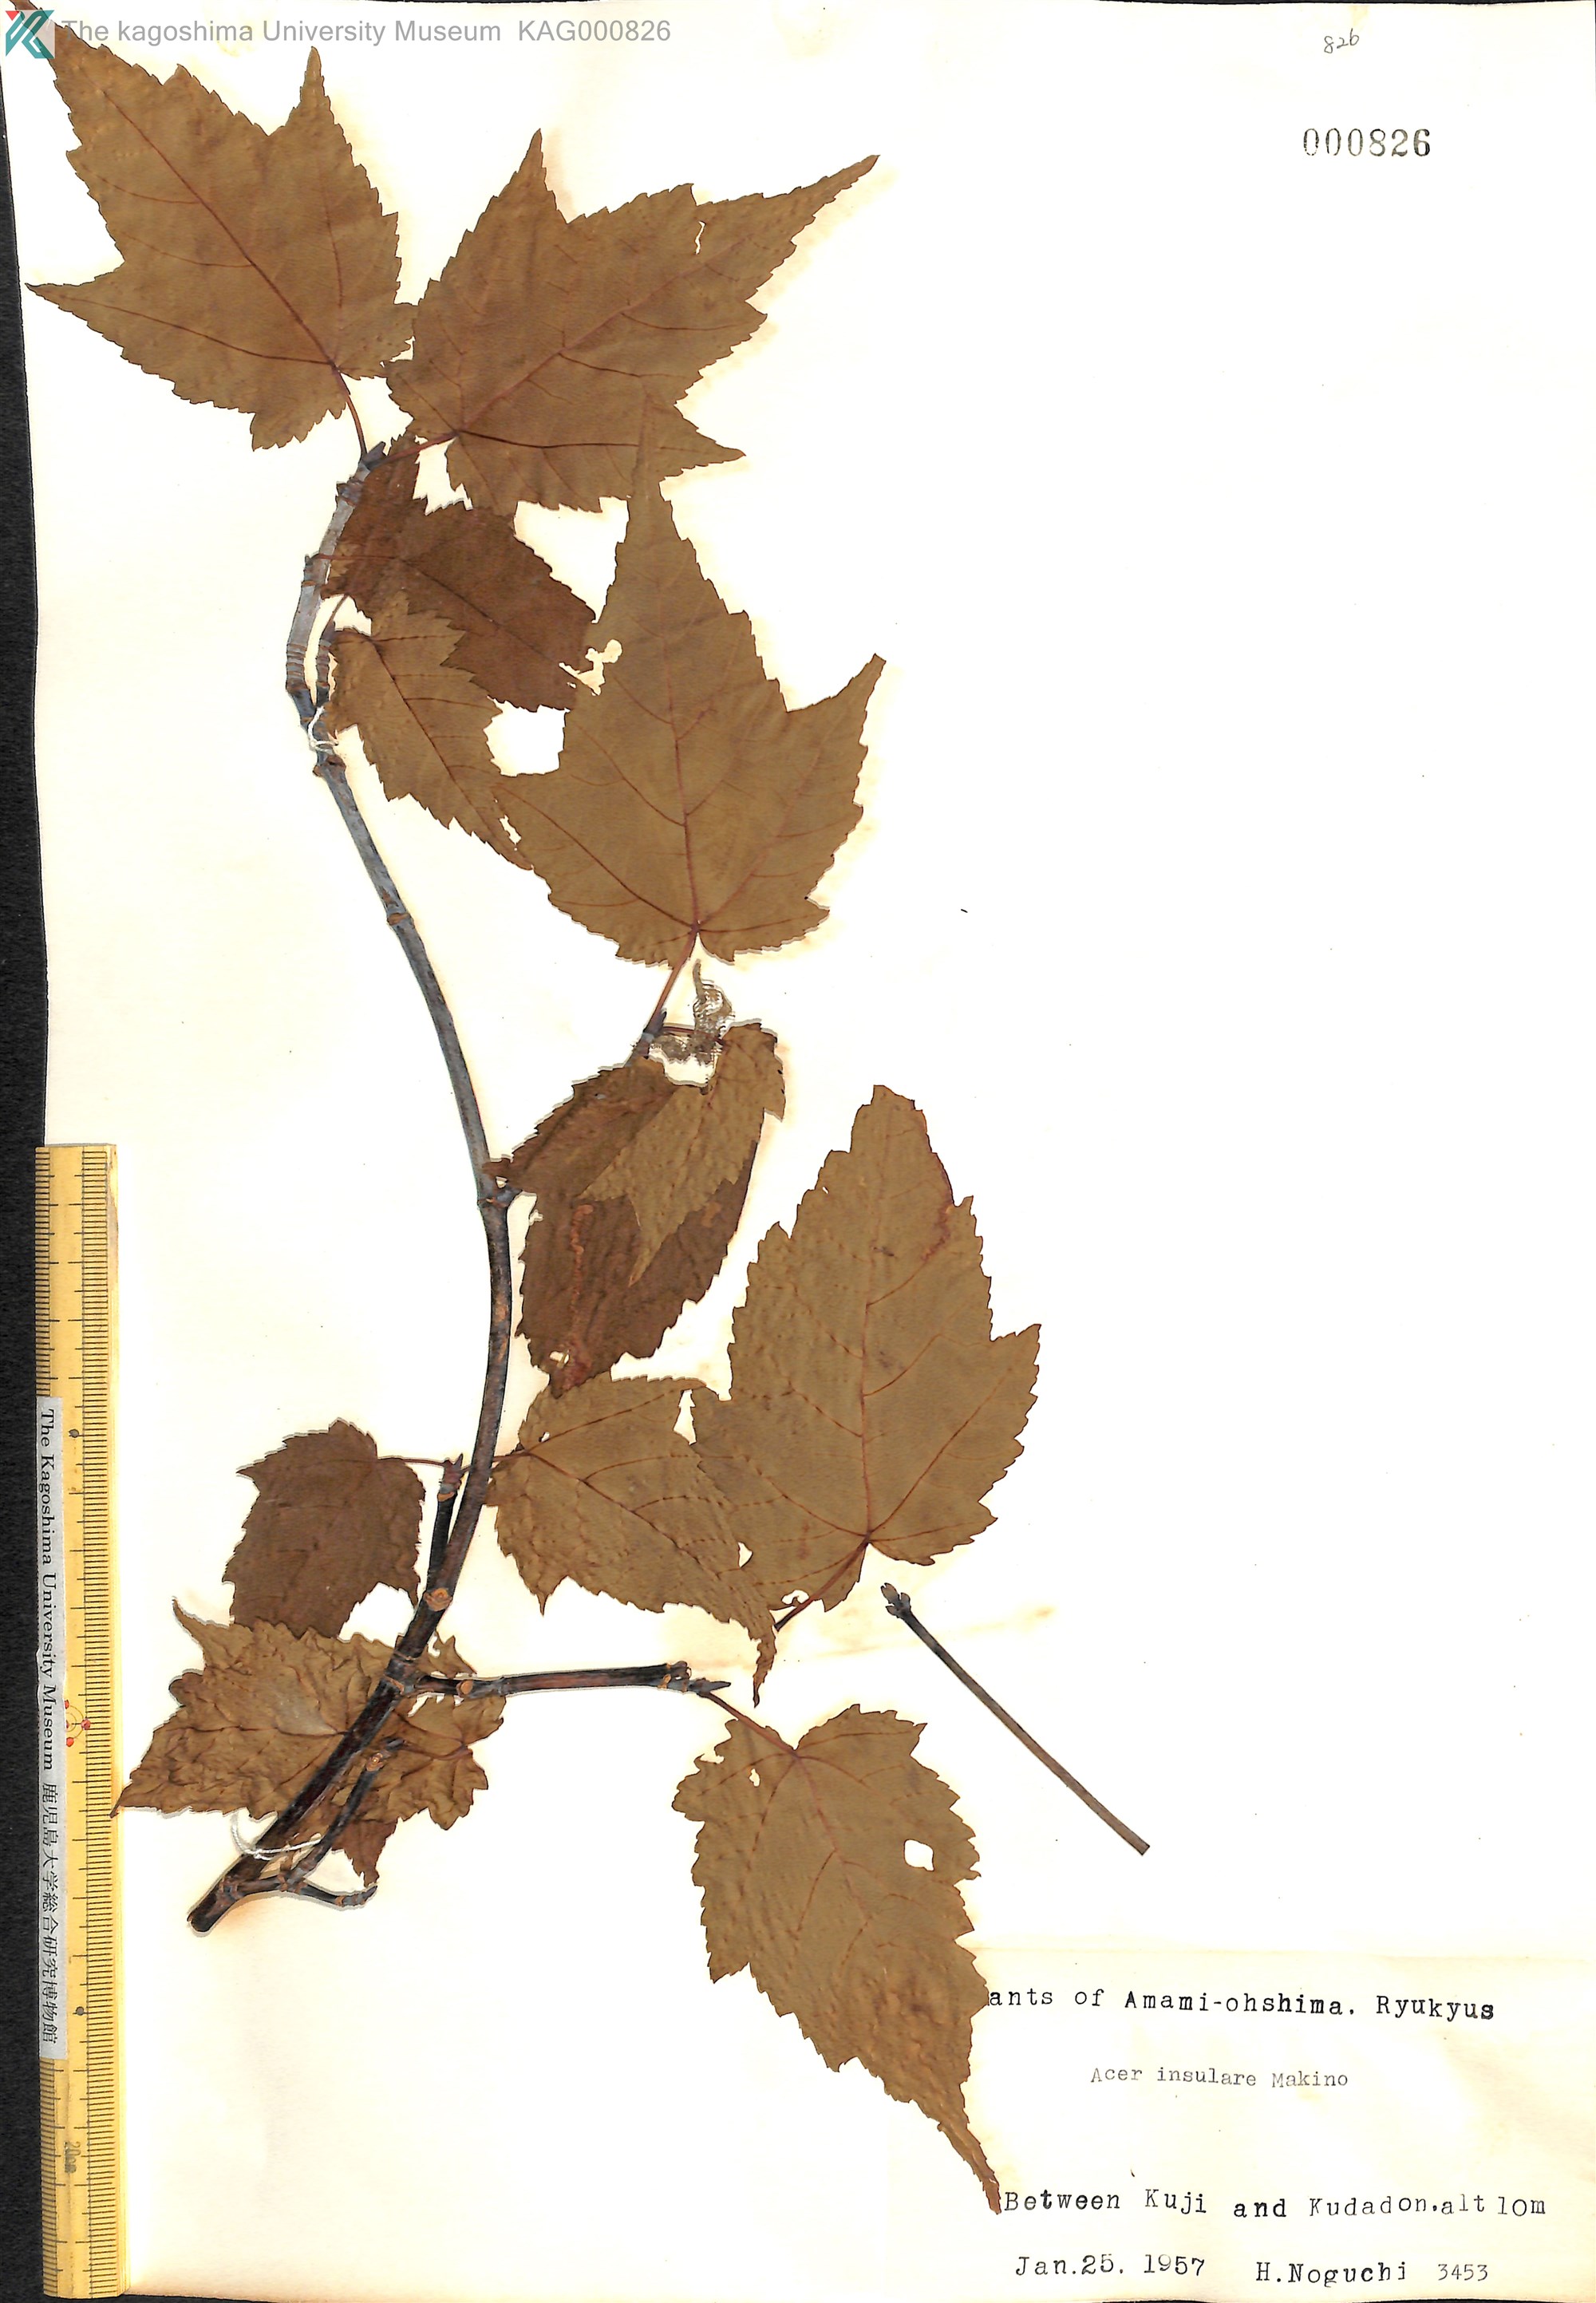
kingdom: Plantae
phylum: Tracheophyta
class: Magnoliopsida
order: Sapindales
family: Sapindaceae
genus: Acer
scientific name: Acer caudatifolium
